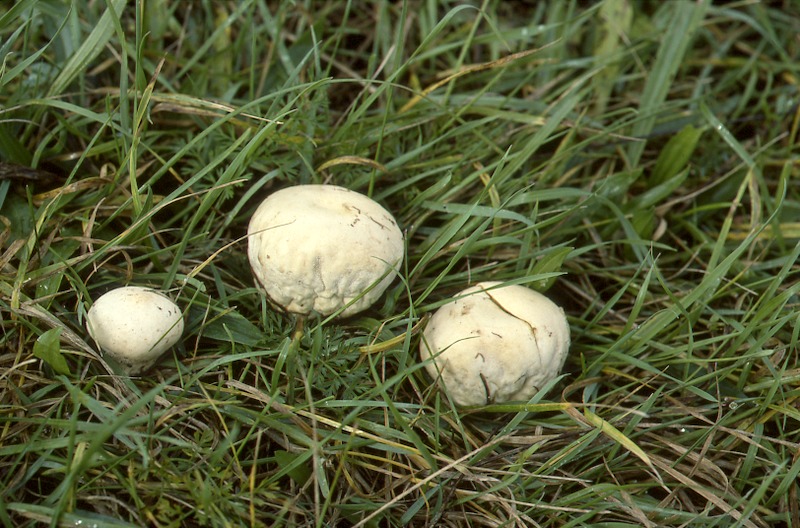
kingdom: Fungi
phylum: Basidiomycota
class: Agaricomycetes
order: Agaricales
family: Lycoperdaceae
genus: Lycoperdon
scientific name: Lycoperdon pratense
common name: Meadow puffball
